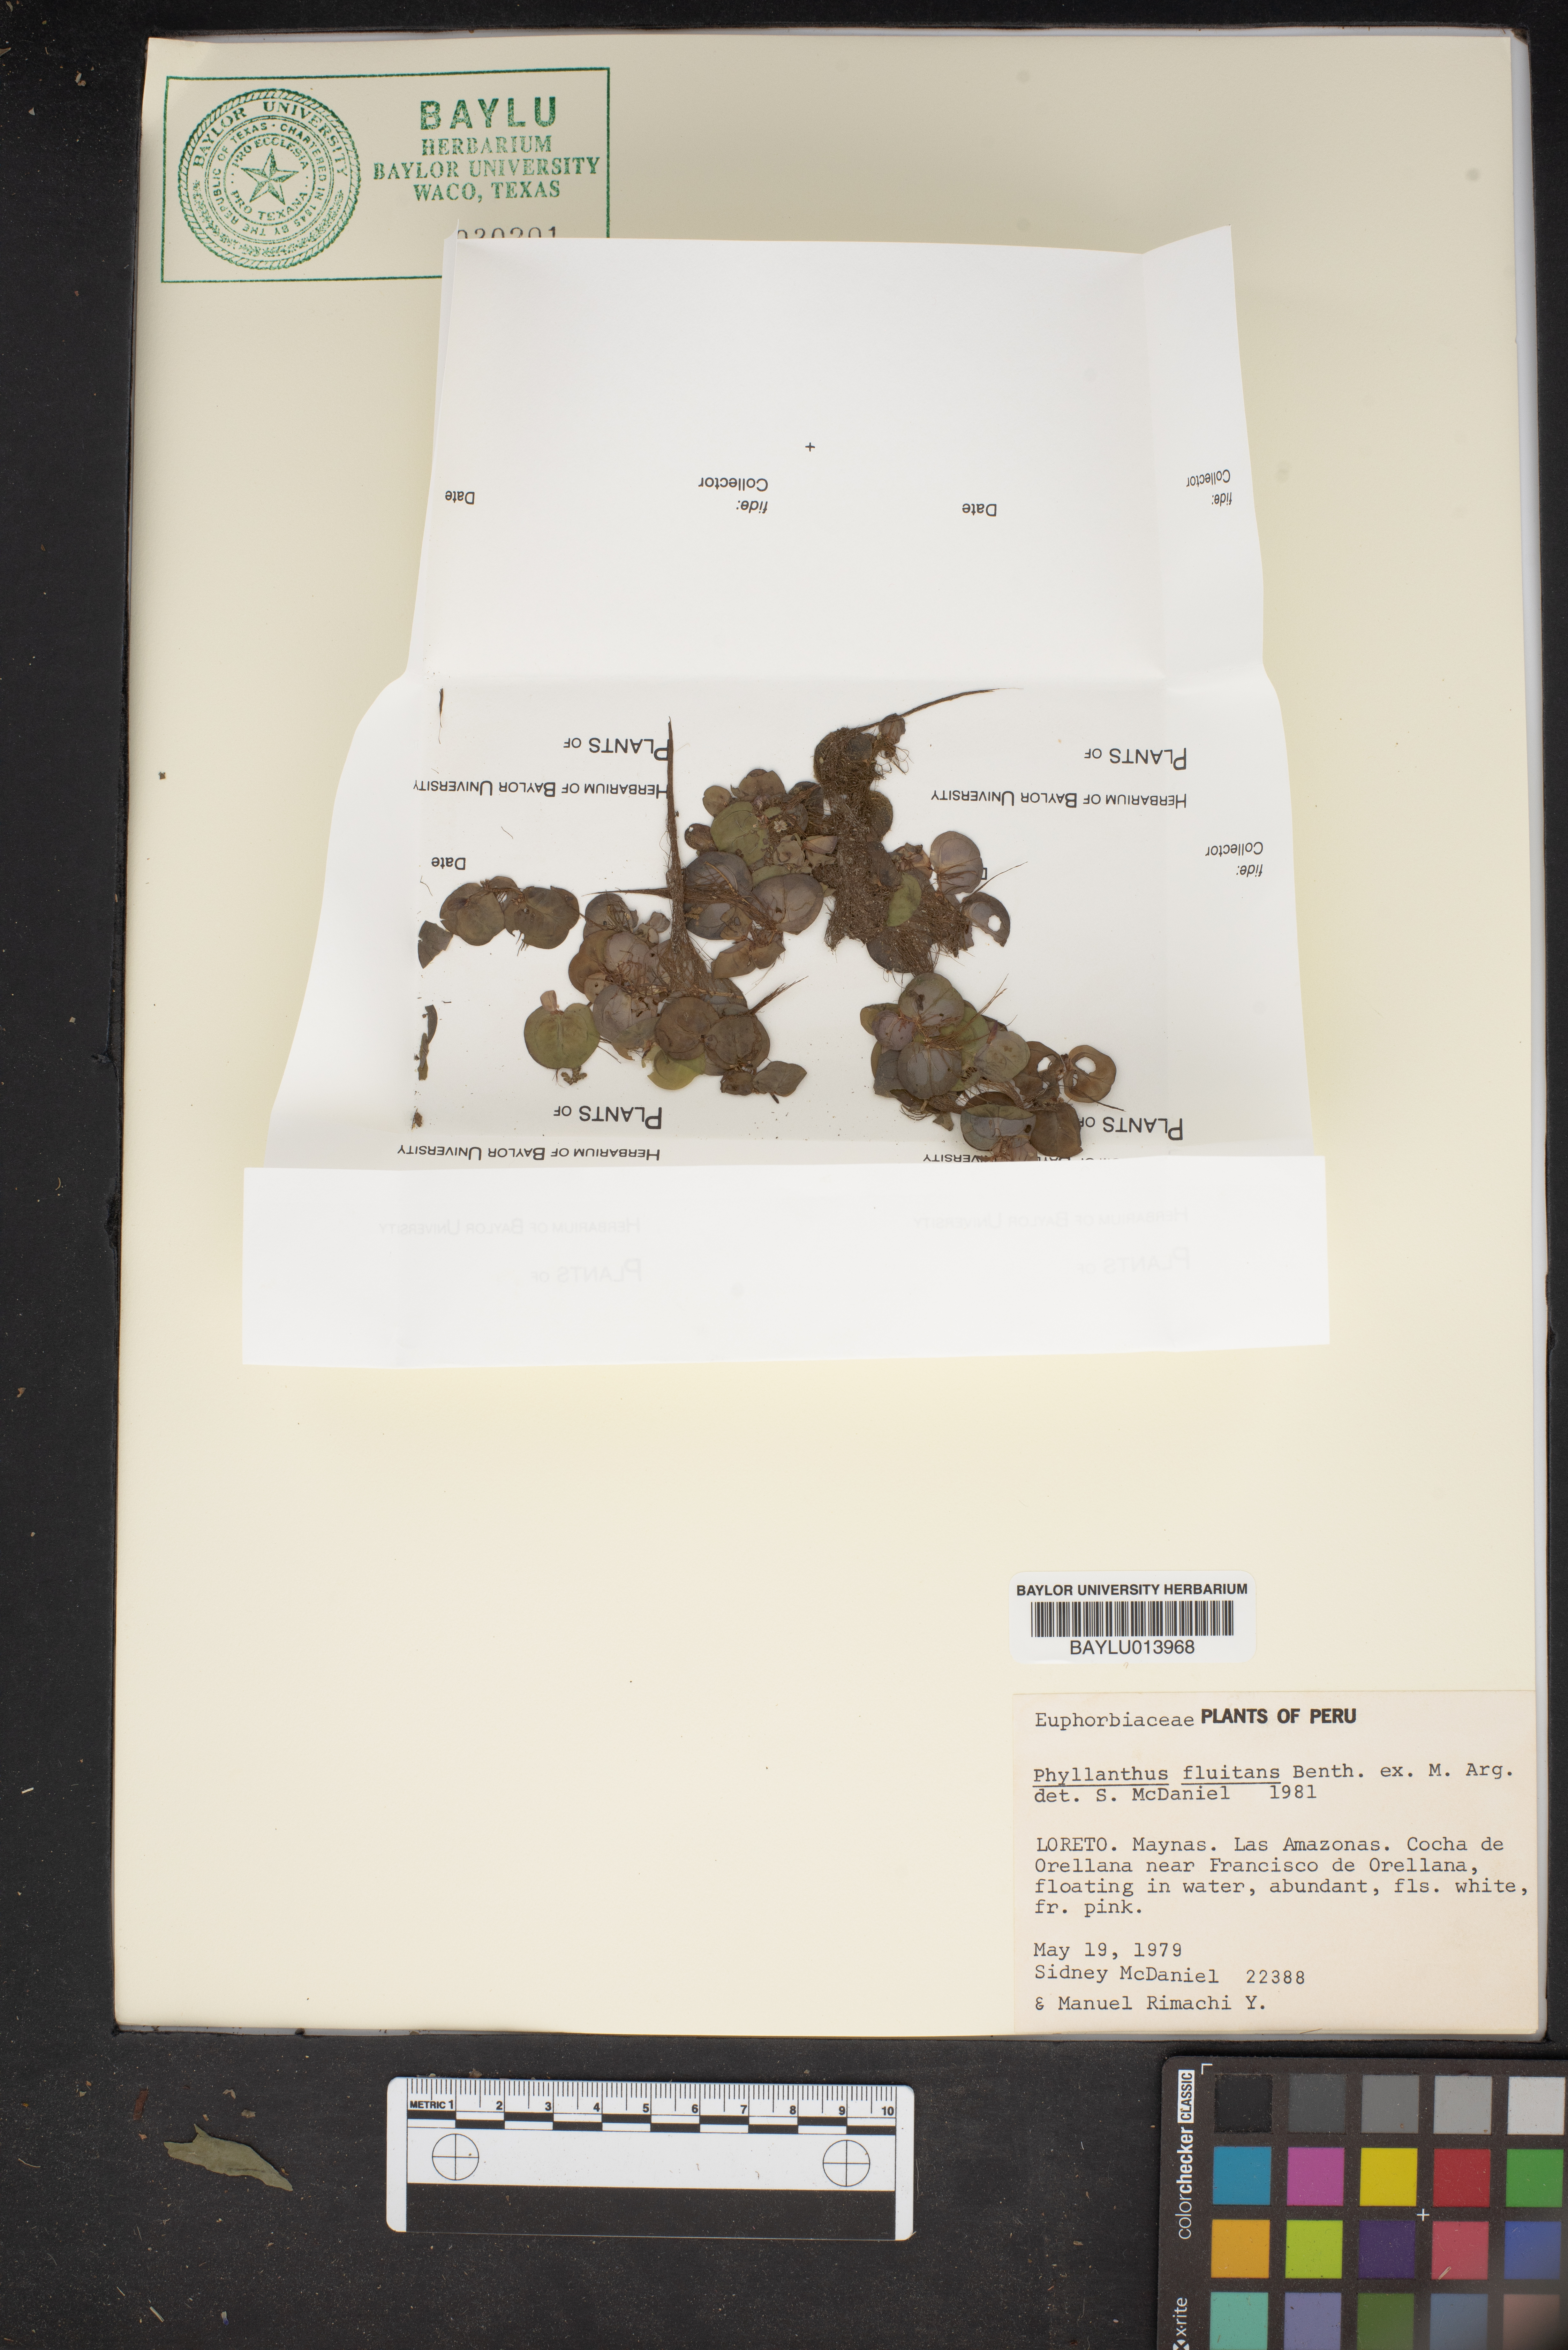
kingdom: Plantae
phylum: Tracheophyta
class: Magnoliopsida
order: Malpighiales
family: Phyllanthaceae
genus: Phyllanthus
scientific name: Phyllanthus fluitans
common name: Floating spurge
